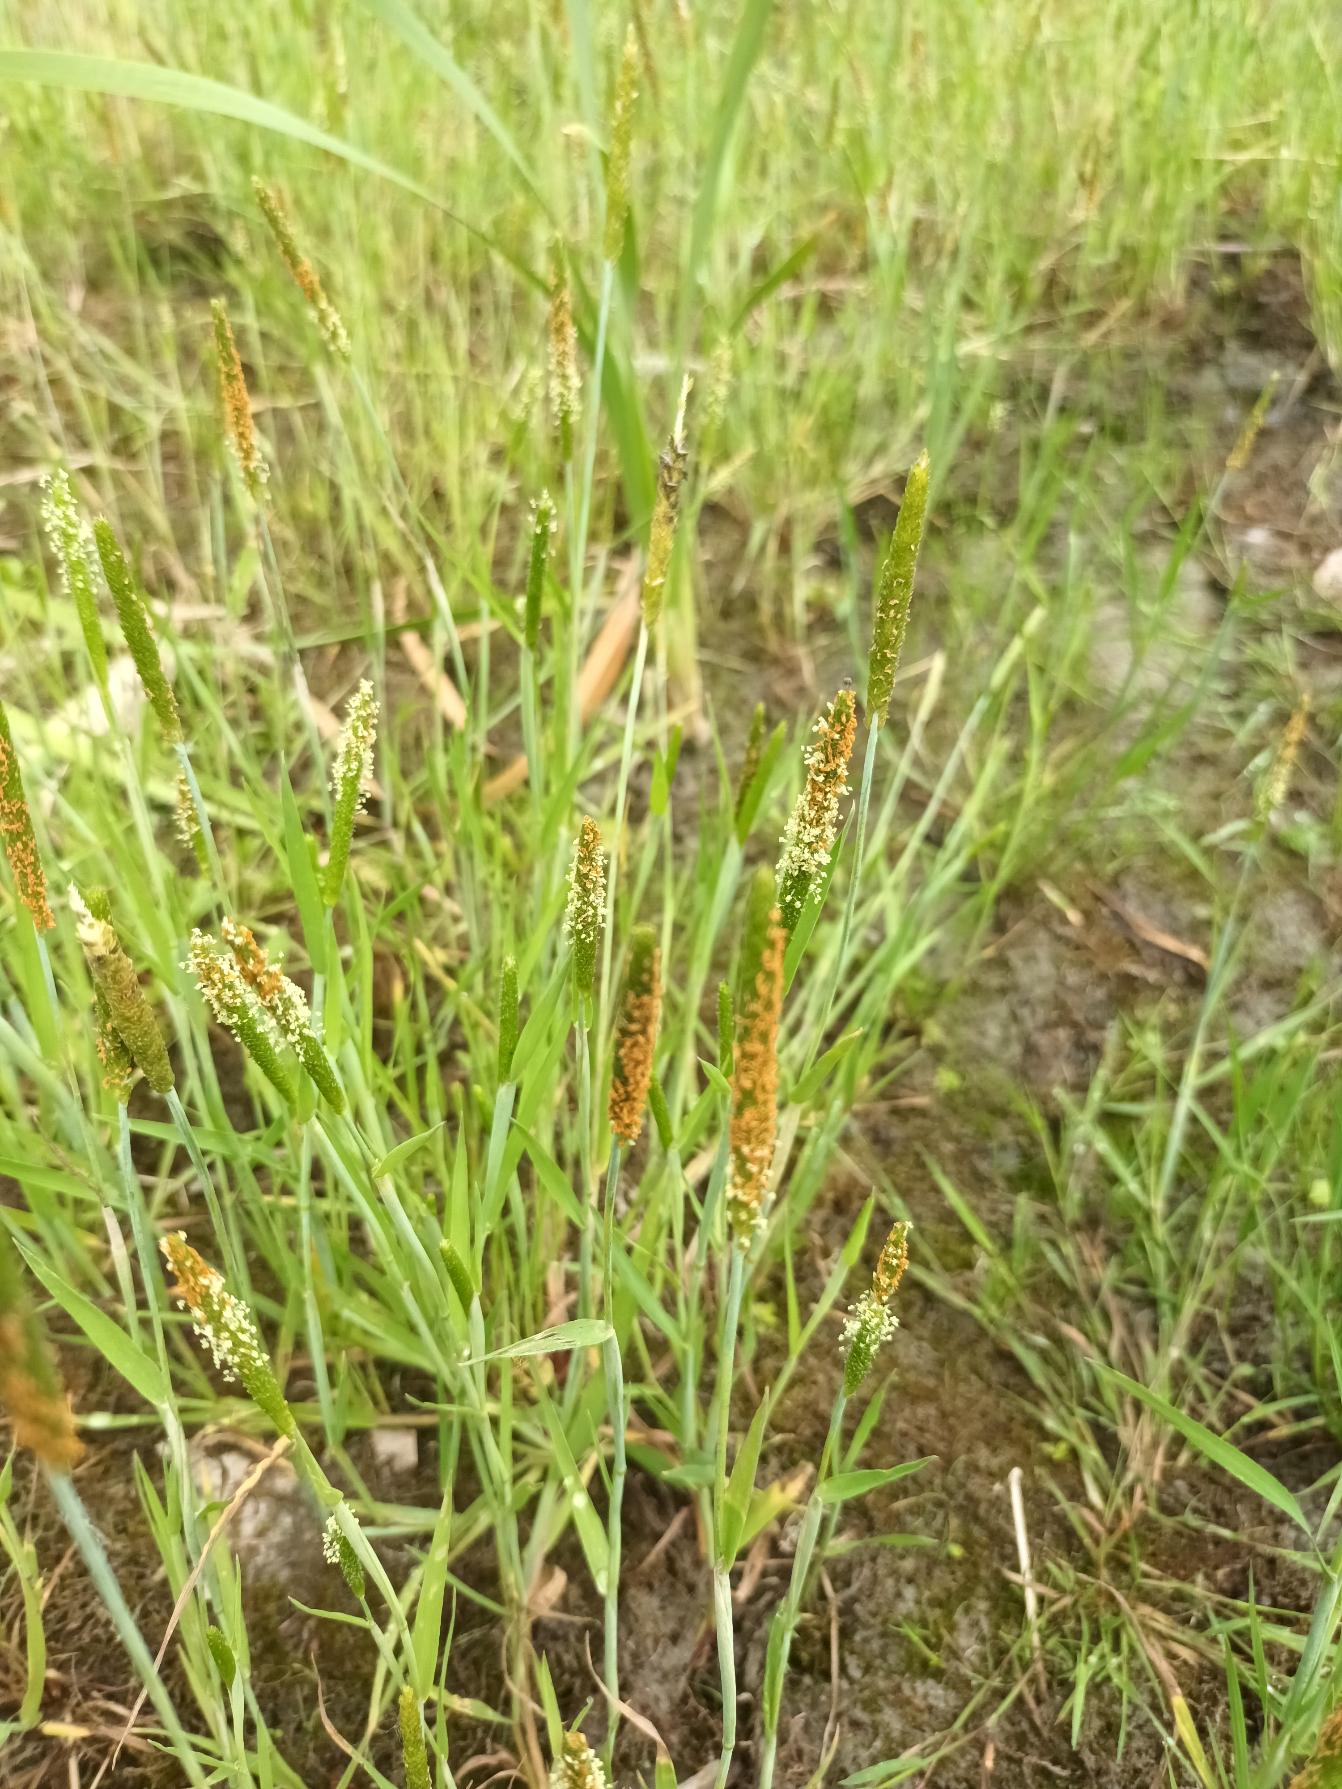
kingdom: Plantae
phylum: Tracheophyta
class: Liliopsida
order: Poales
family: Poaceae
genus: Alopecurus
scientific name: Alopecurus aequalis
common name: Gul rævehale
